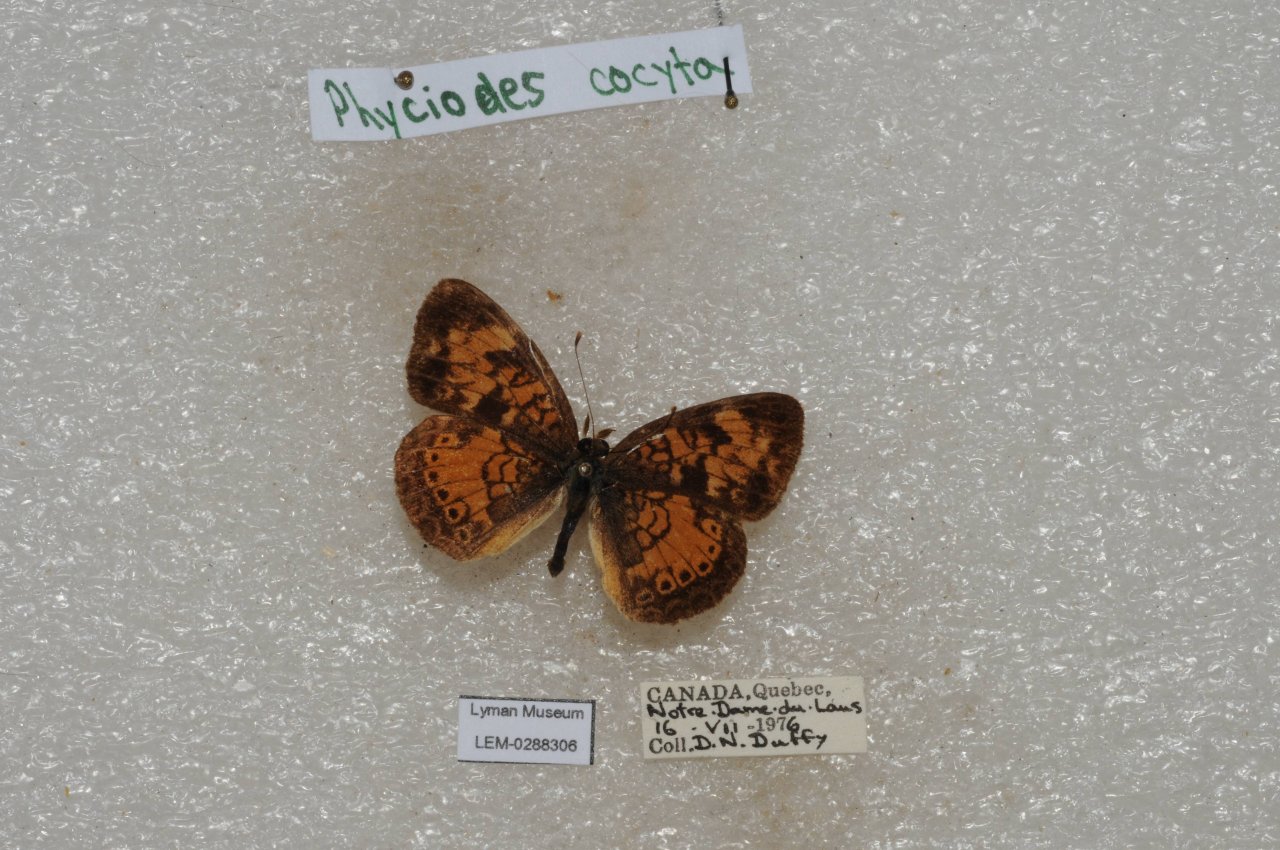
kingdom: Animalia
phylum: Arthropoda
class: Insecta
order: Lepidoptera
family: Nymphalidae
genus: Phyciodes
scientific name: Phyciodes tharos
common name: Northern Crescent
